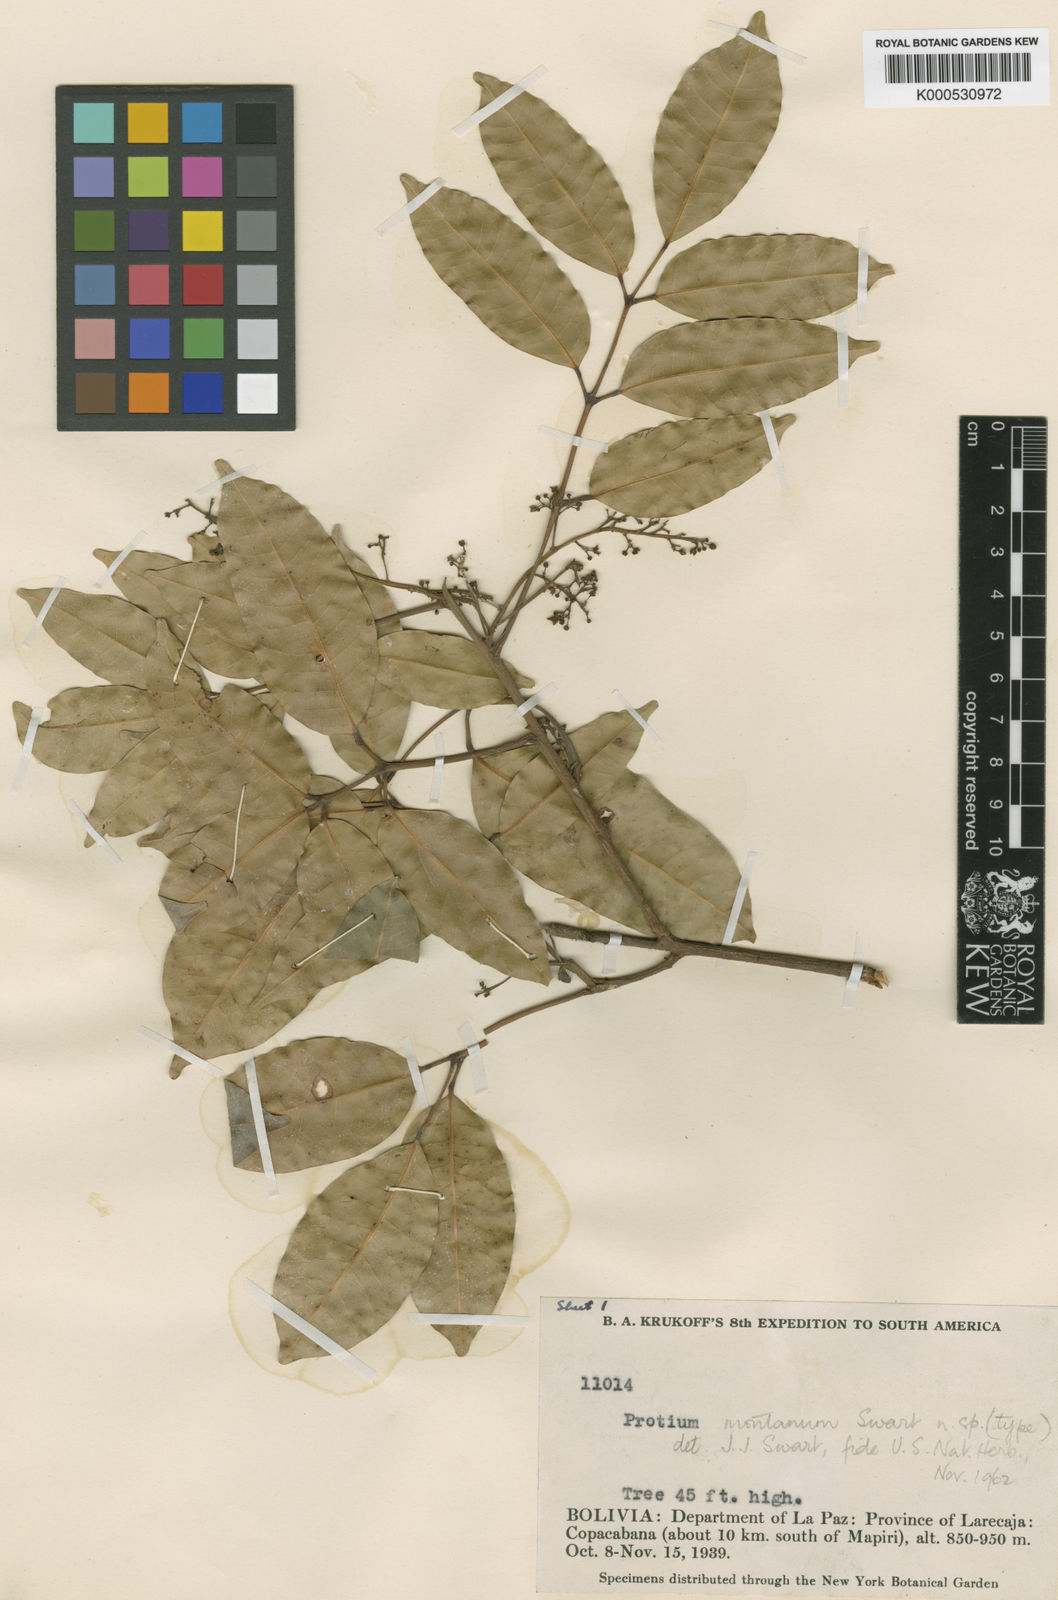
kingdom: Plantae
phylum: Tracheophyta
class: Magnoliopsida
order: Sapindales
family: Burseraceae
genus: Protium
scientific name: Protium montanum
